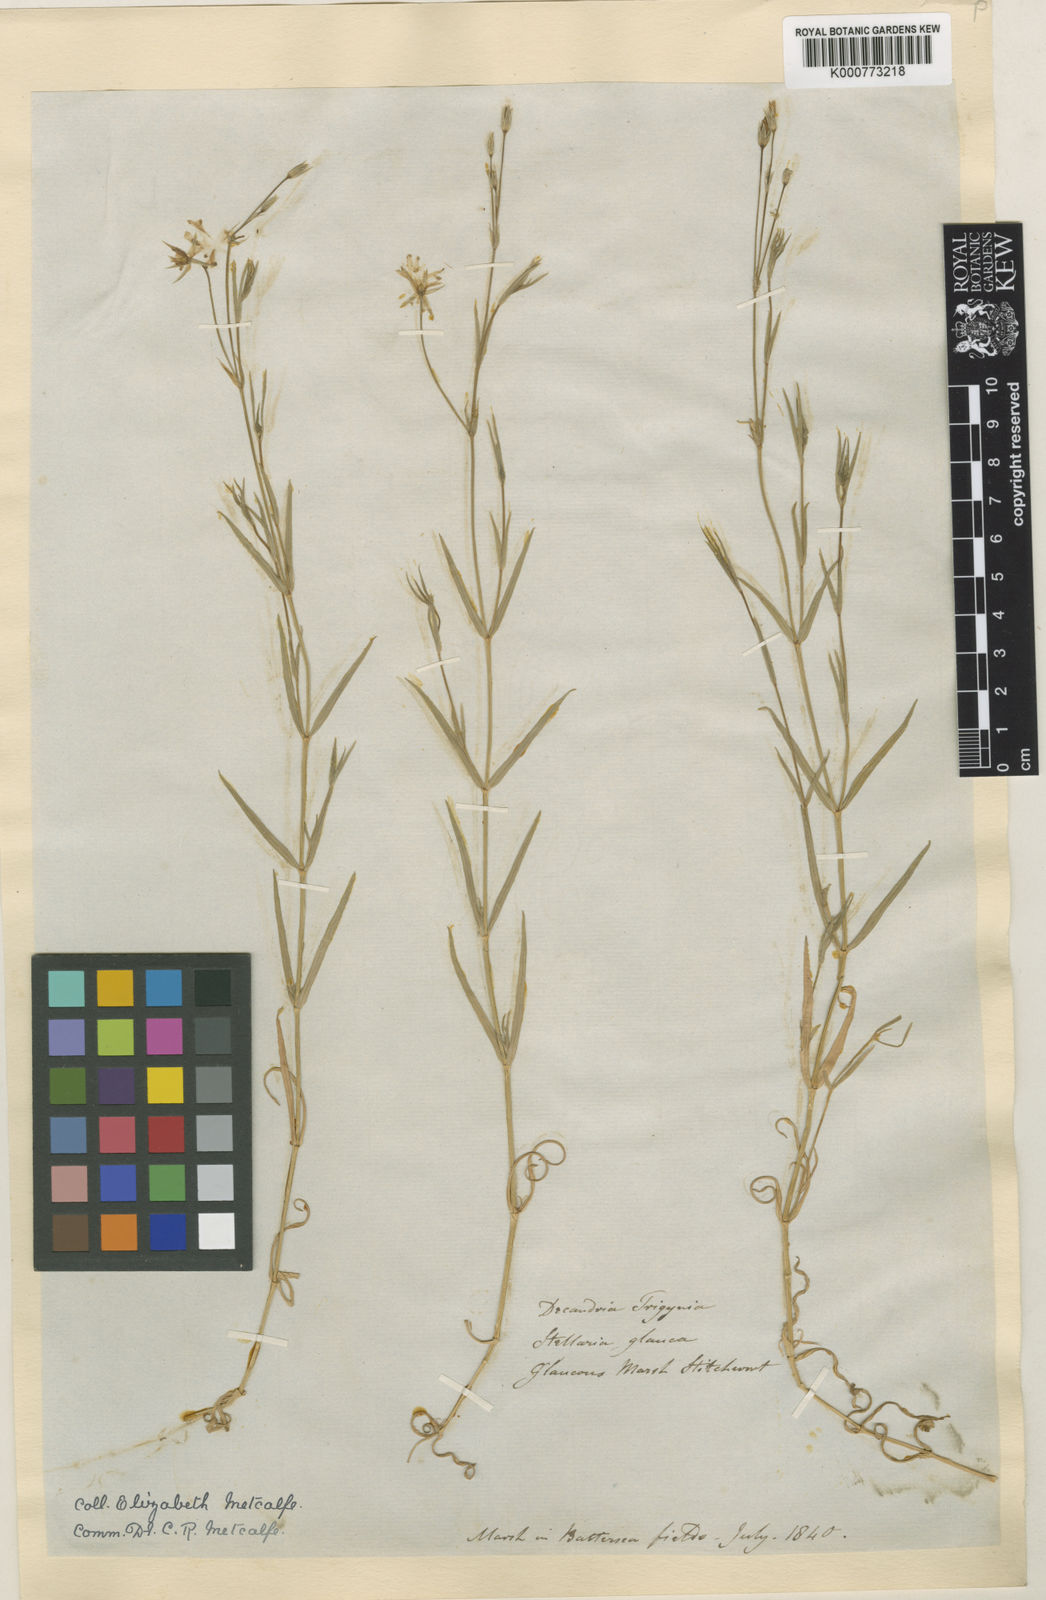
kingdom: Plantae
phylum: Tracheophyta
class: Magnoliopsida
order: Caryophyllales
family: Caryophyllaceae
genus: Stellaria
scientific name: Stellaria
